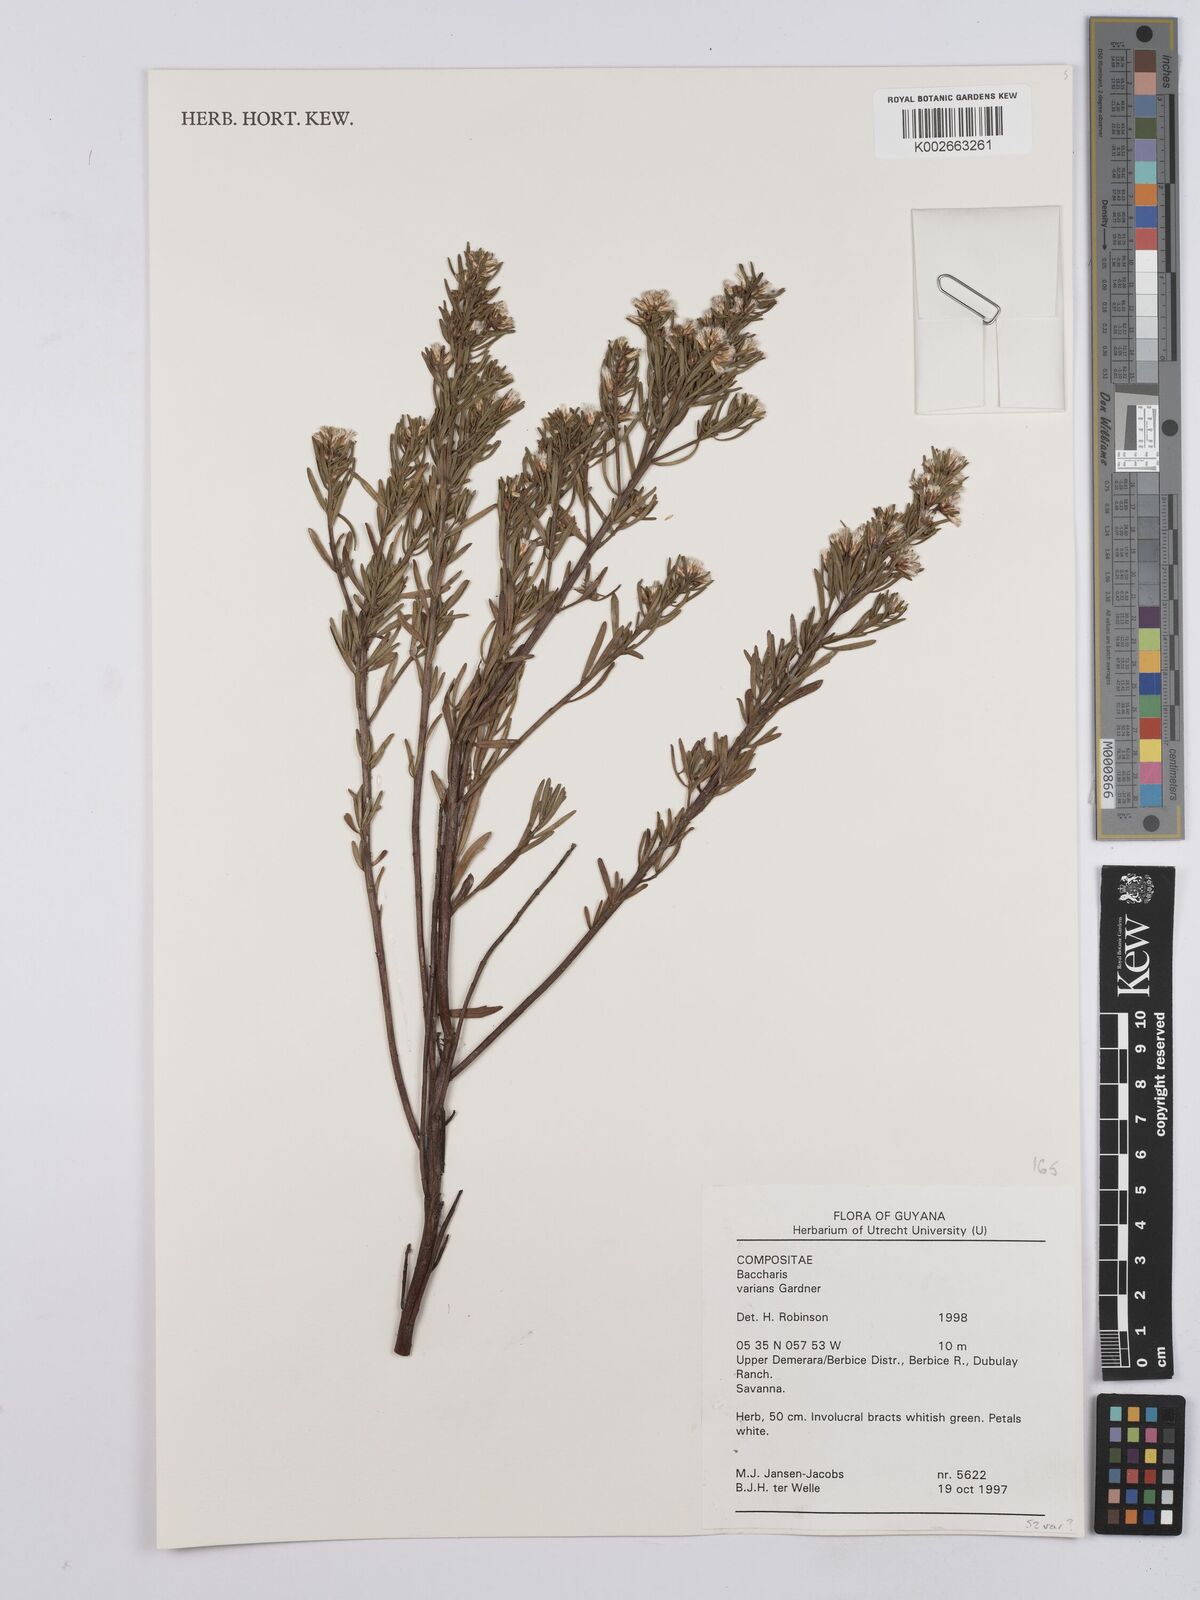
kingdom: Plantae
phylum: Tracheophyta
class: Magnoliopsida
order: Asterales
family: Asteraceae
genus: Baccharis
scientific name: Baccharis varians
